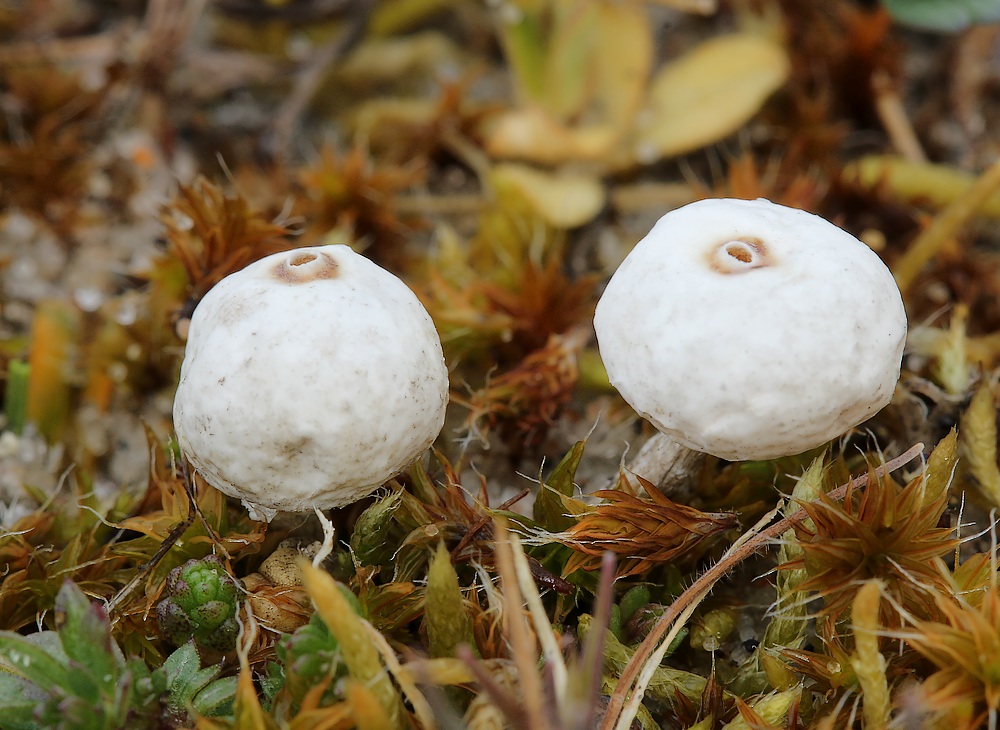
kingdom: Fungi
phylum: Basidiomycota
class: Agaricomycetes
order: Agaricales
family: Agaricaceae
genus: Tulostoma
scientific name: Tulostoma brumale
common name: vinter-stilkbovist
